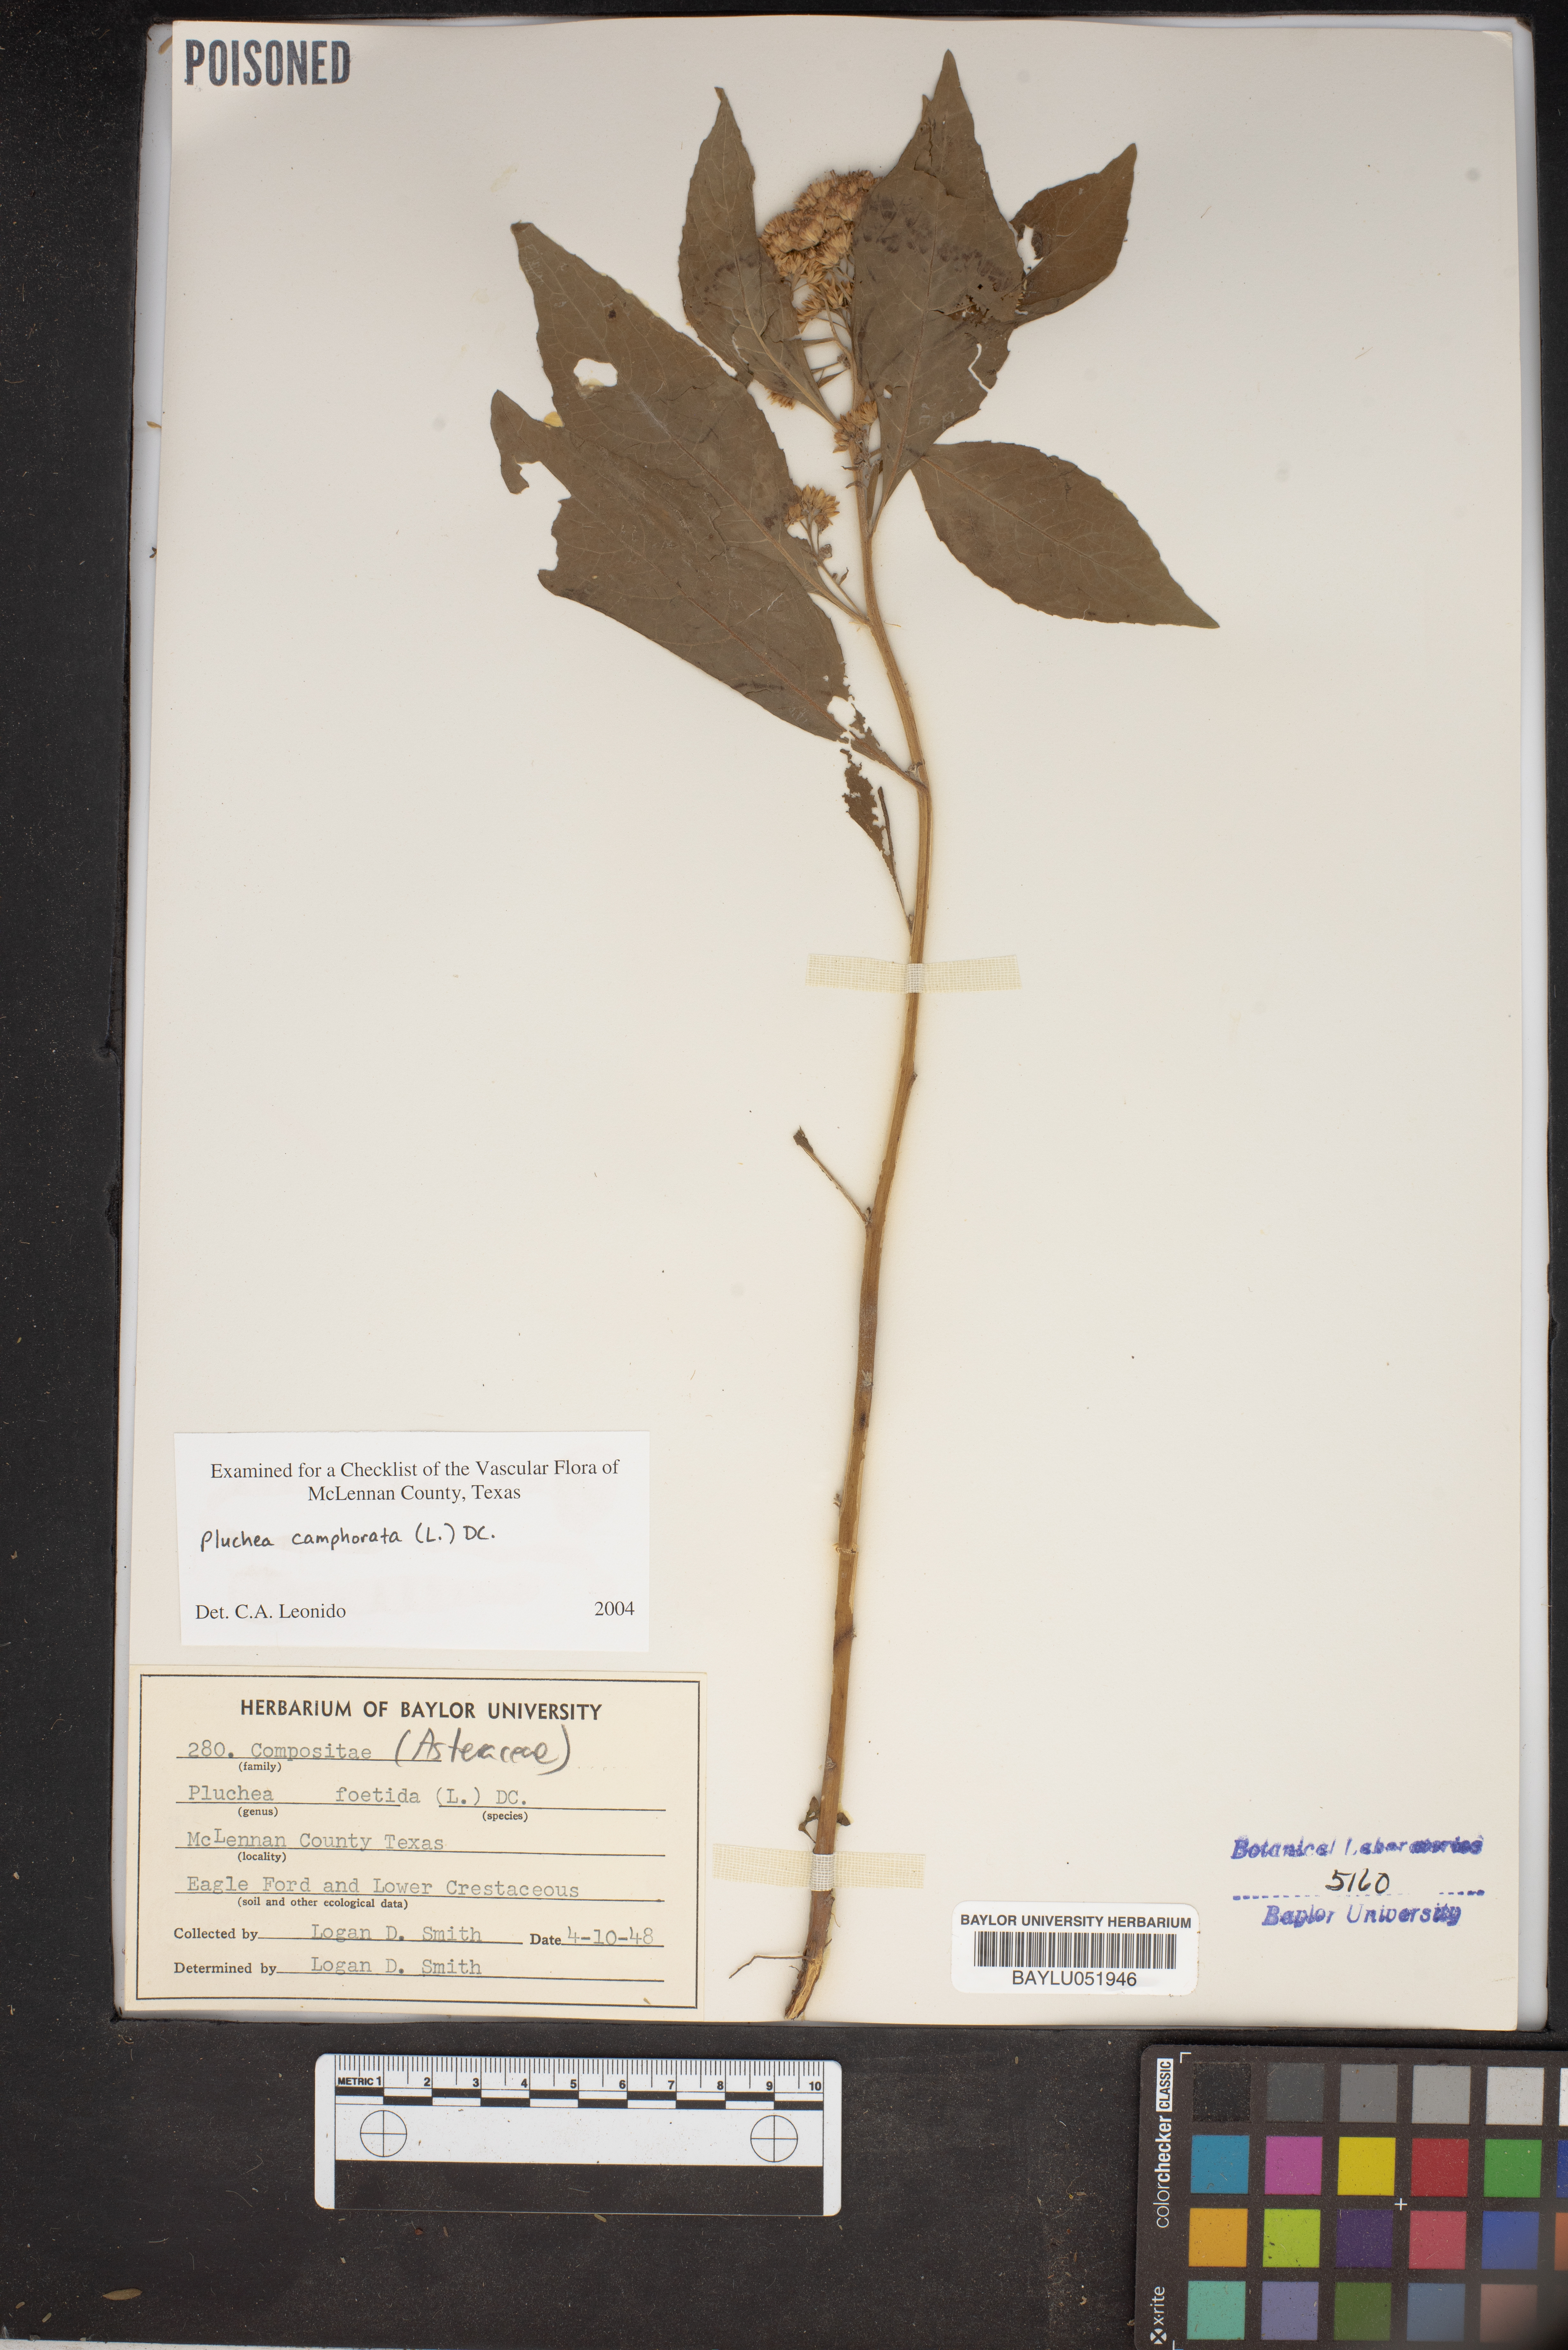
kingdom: Plantae
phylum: Tracheophyta
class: Magnoliopsida
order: Asterales
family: Asteraceae
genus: Pluchea
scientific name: Pluchea foetida
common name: Stinking camphorweed
